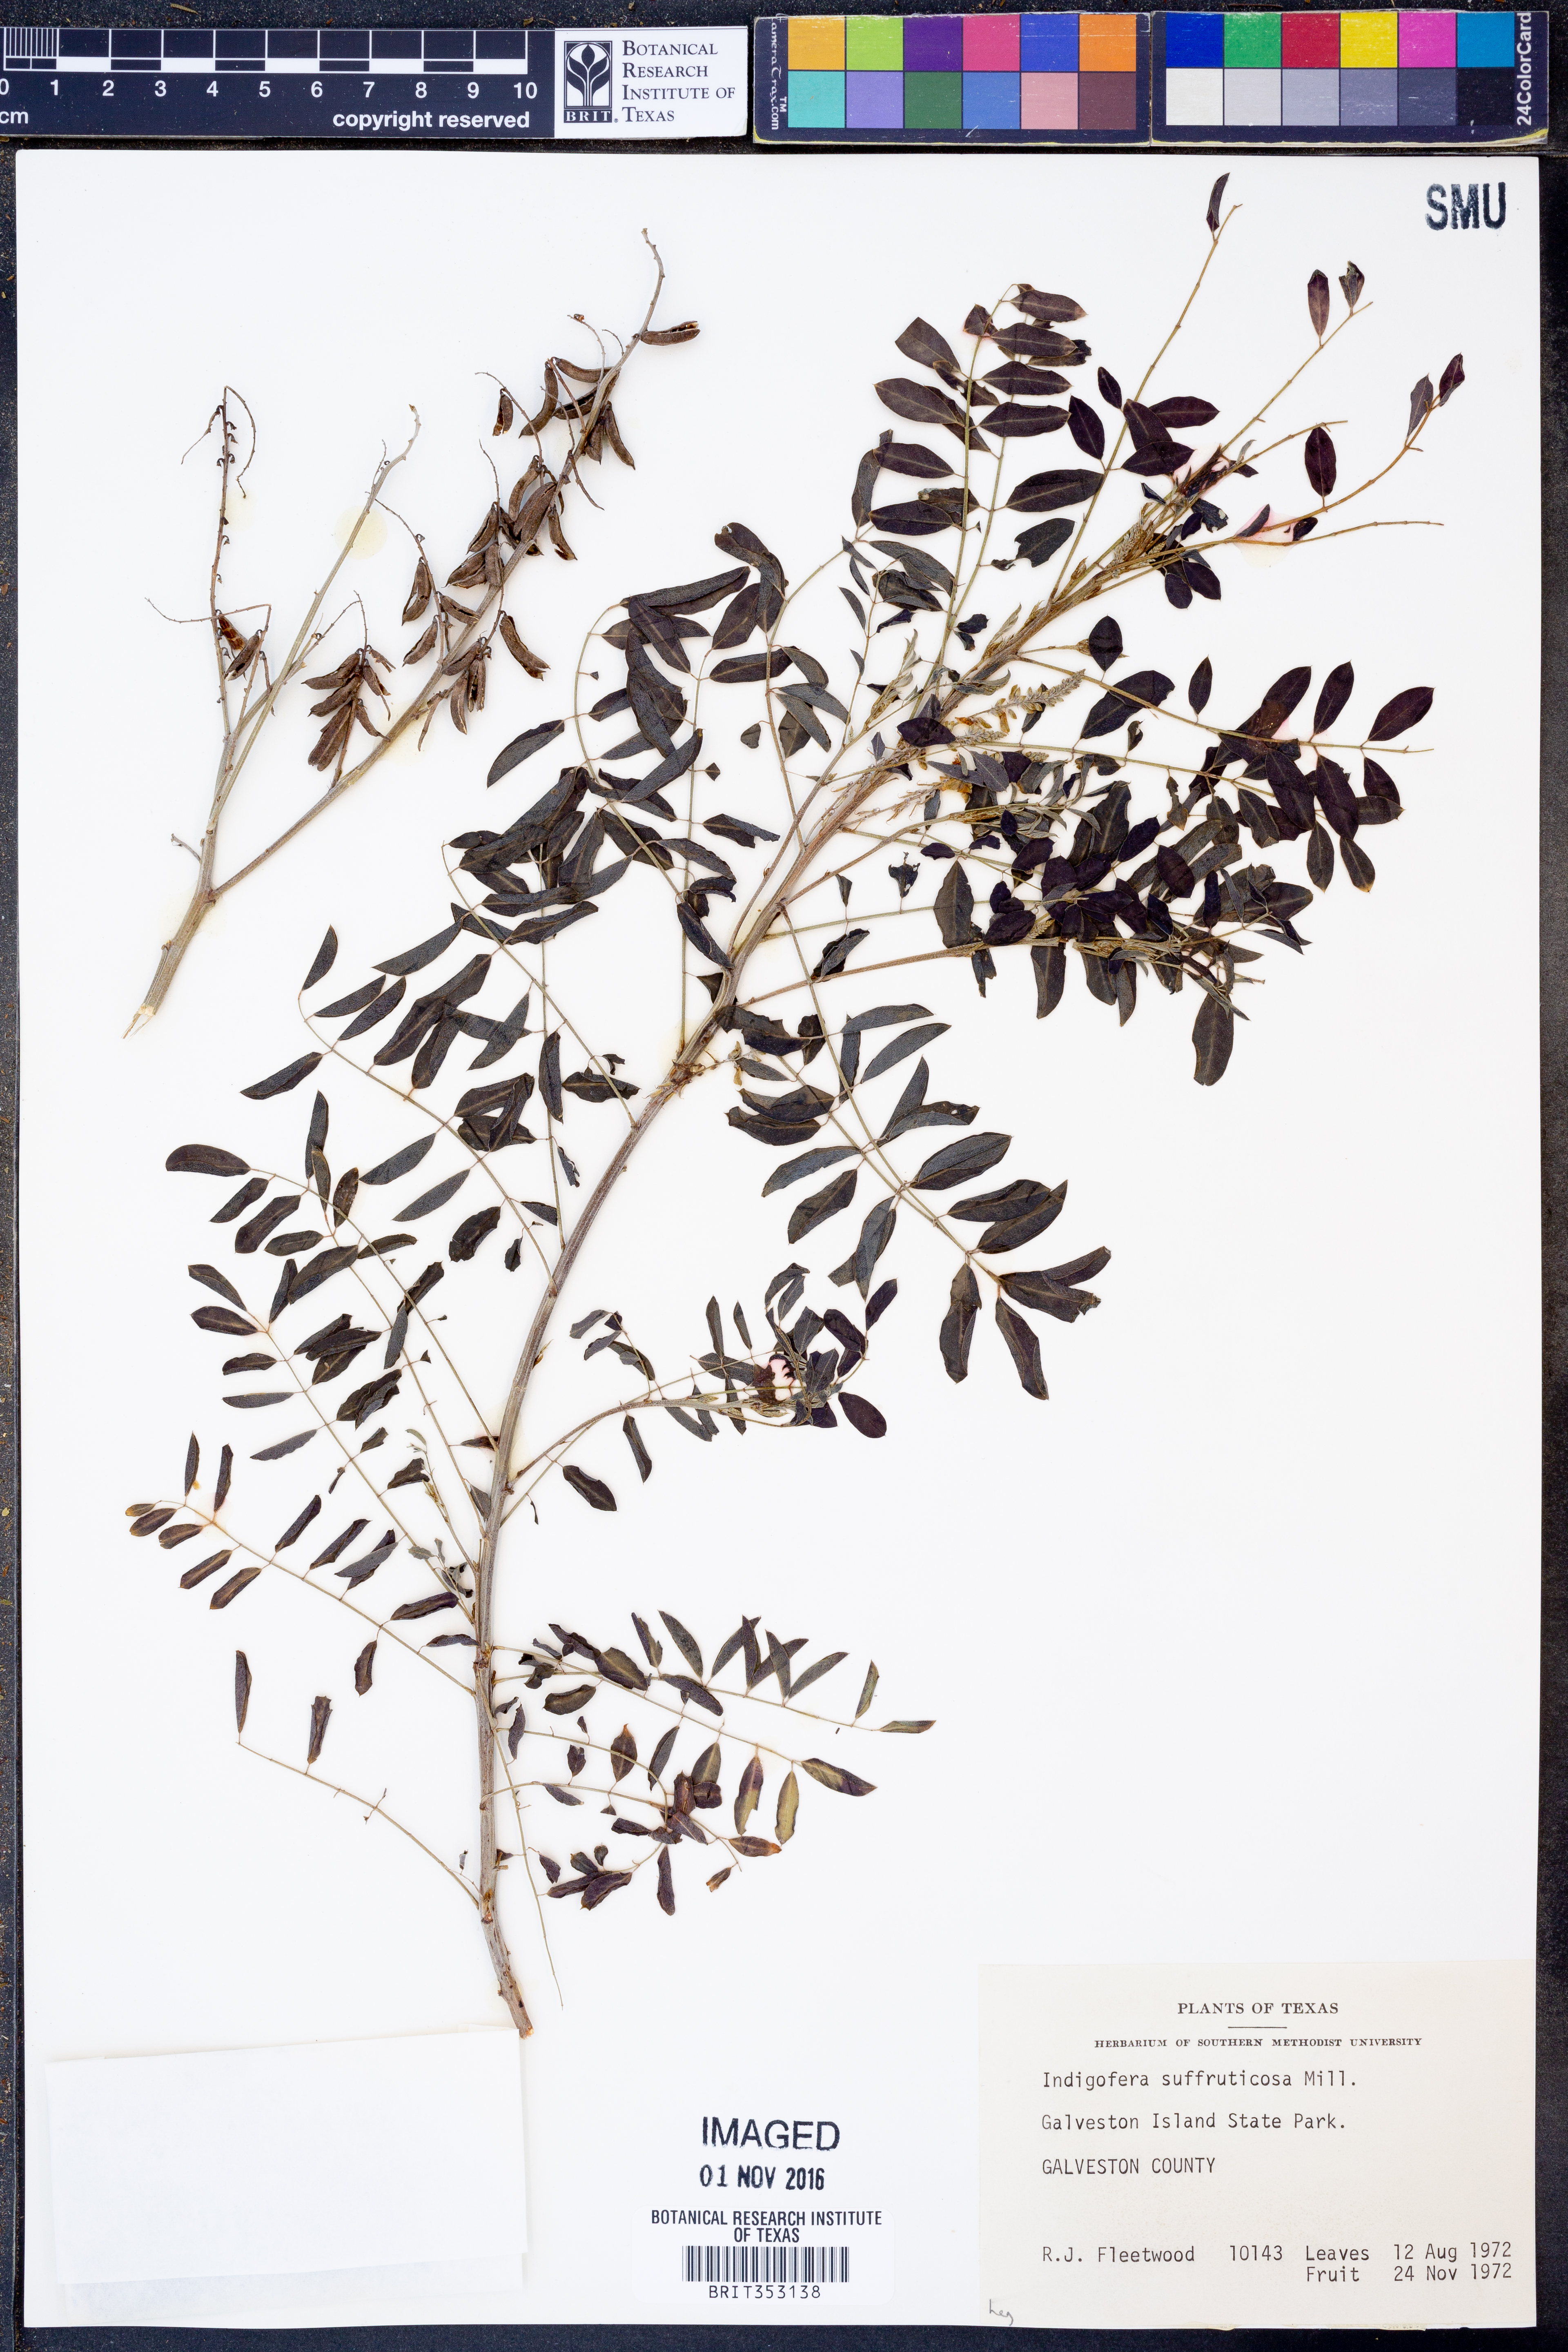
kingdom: Plantae
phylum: Tracheophyta
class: Magnoliopsida
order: Fabales
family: Fabaceae
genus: Indigofera
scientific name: Indigofera suffruticosa
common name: Anil de pasto
